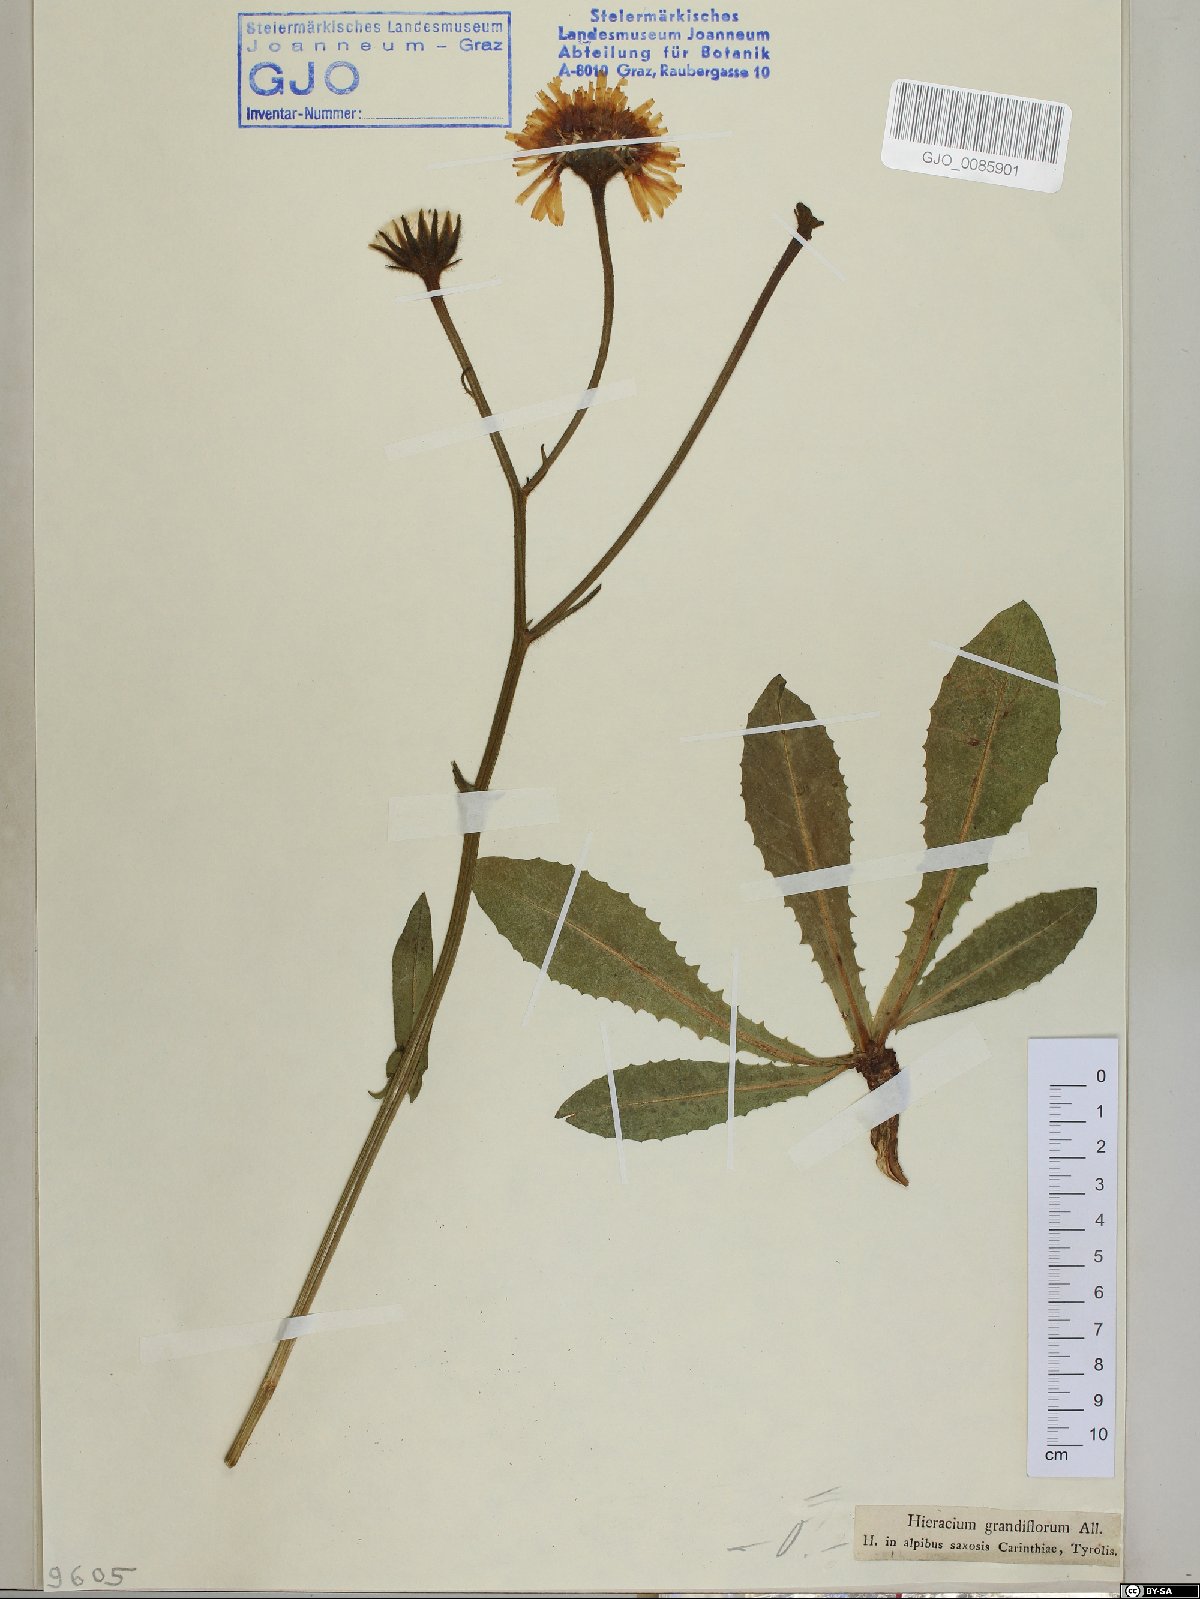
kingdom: Plantae
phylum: Tracheophyta
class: Magnoliopsida
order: Asterales
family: Asteraceae
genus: Crepis
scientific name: Crepis pyrenaica
